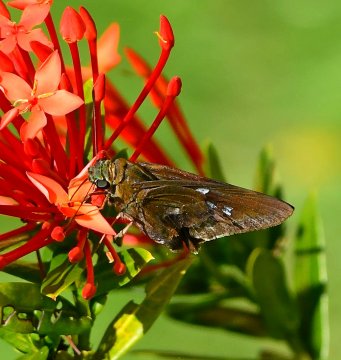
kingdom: Animalia
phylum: Arthropoda
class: Insecta
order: Lepidoptera
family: Hesperiidae
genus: Aides
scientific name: Aides
